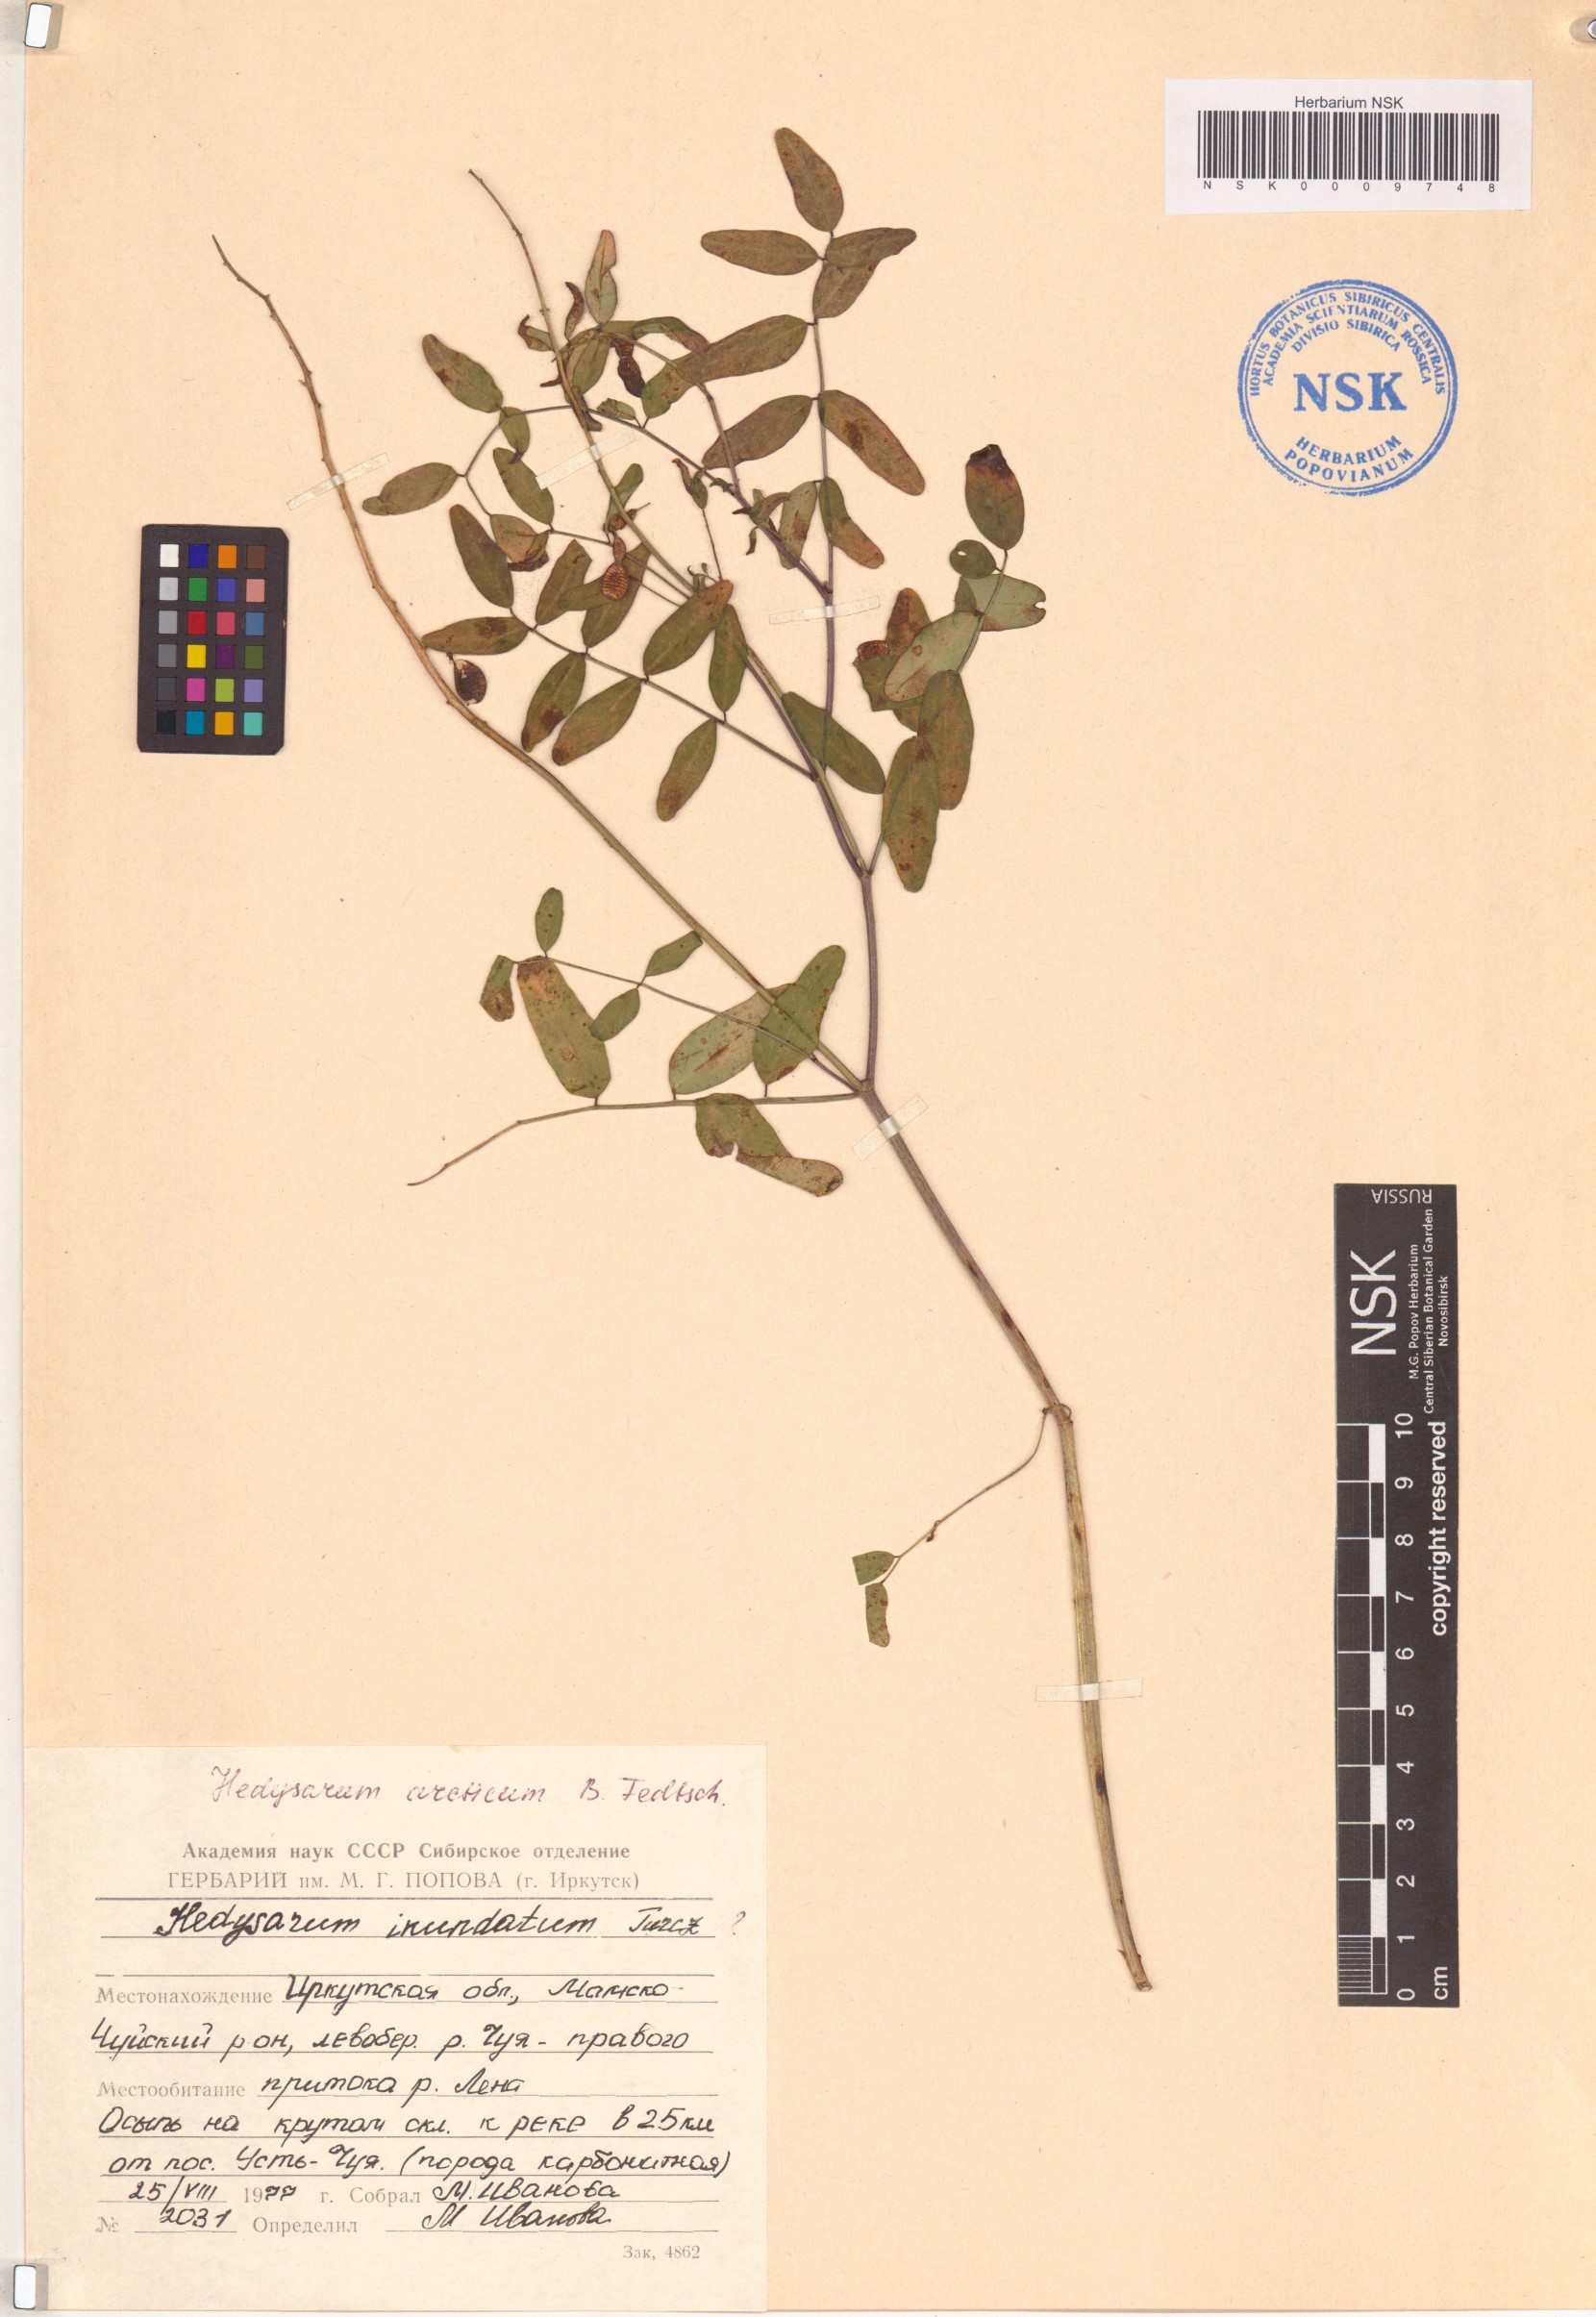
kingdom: Plantae
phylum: Tracheophyta
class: Magnoliopsida
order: Fabales
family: Fabaceae
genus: Hedysarum
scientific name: Hedysarum hedysaroides
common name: Alpine french-honeysuckle
